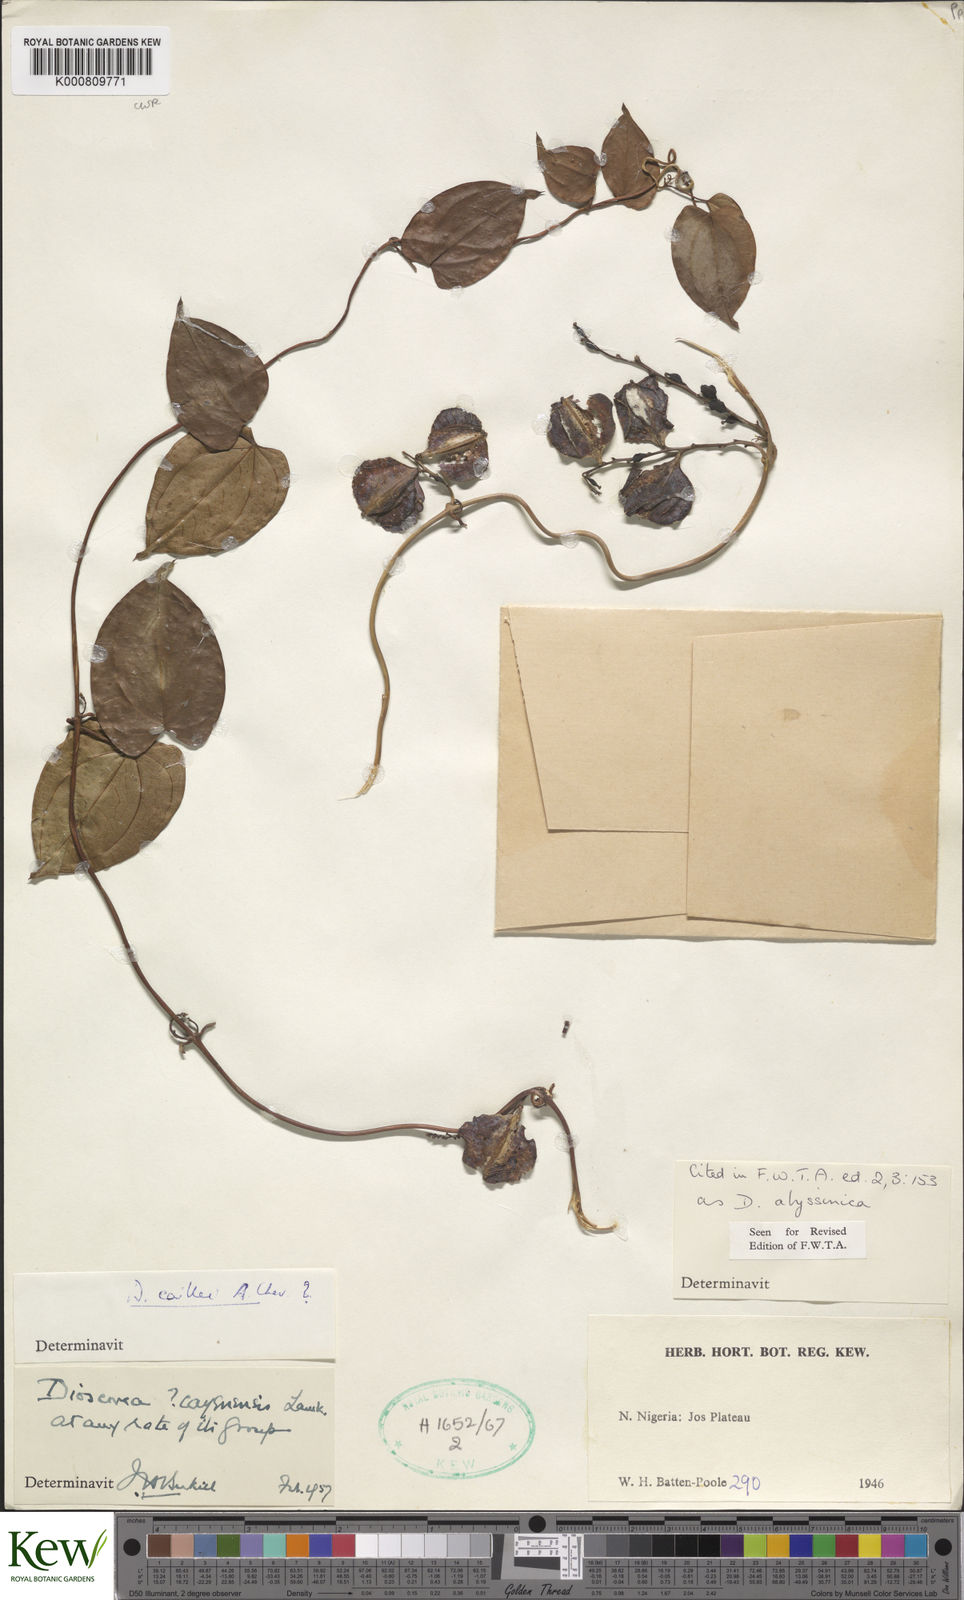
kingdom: Plantae
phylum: Tracheophyta
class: Liliopsida
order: Dioscoreales
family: Dioscoreaceae
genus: Dioscorea
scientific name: Dioscorea abyssinica
